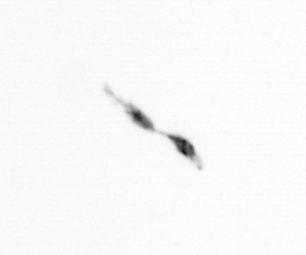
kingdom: Animalia
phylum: Arthropoda
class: Copepoda
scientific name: Copepoda
